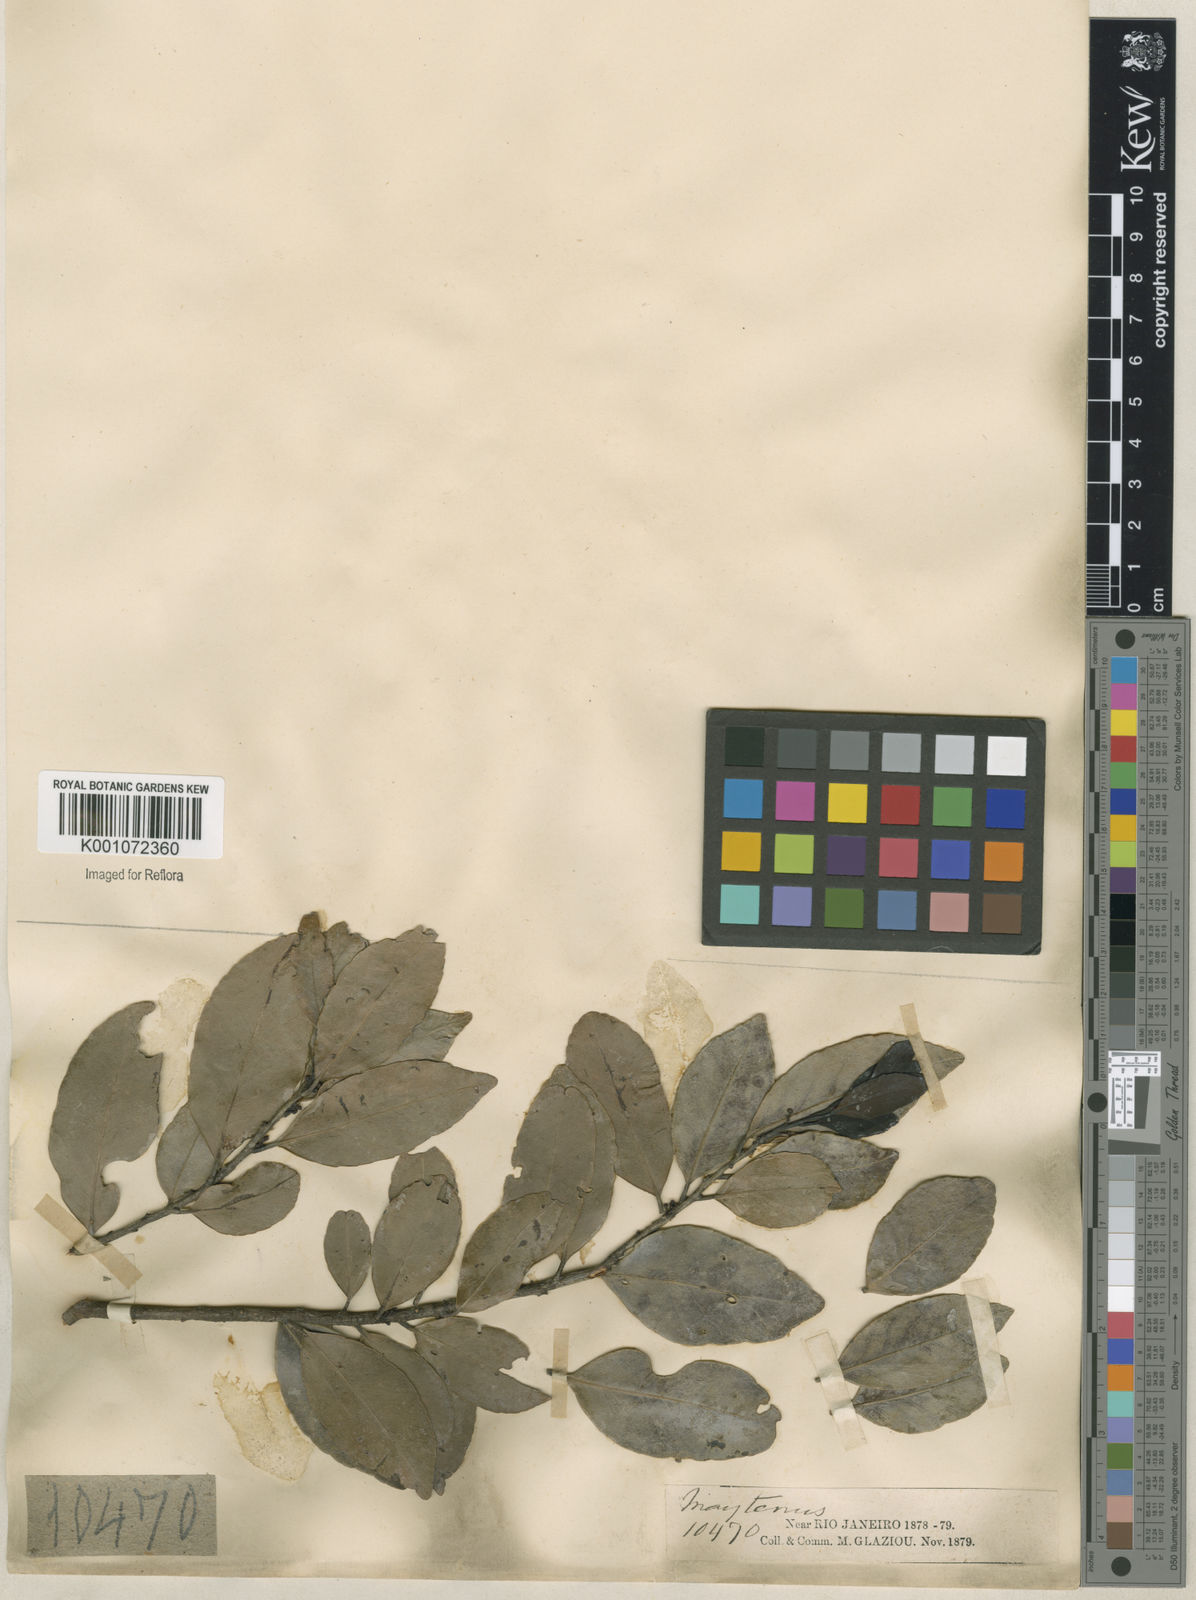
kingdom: Plantae
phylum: Tracheophyta
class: Magnoliopsida
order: Celastrales
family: Celastraceae
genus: Maytenus
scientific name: Maytenus
